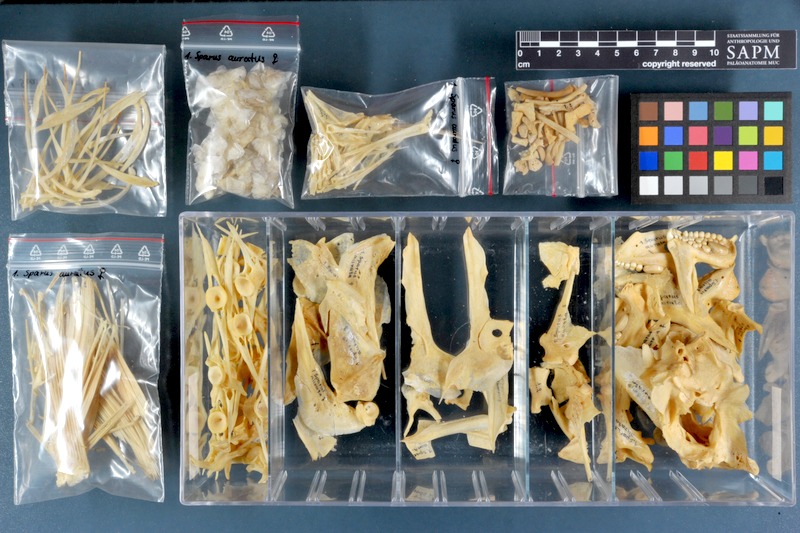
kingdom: Animalia
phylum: Chordata
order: Perciformes
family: Sparidae
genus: Sparus
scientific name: Sparus aurata
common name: Gilthead
